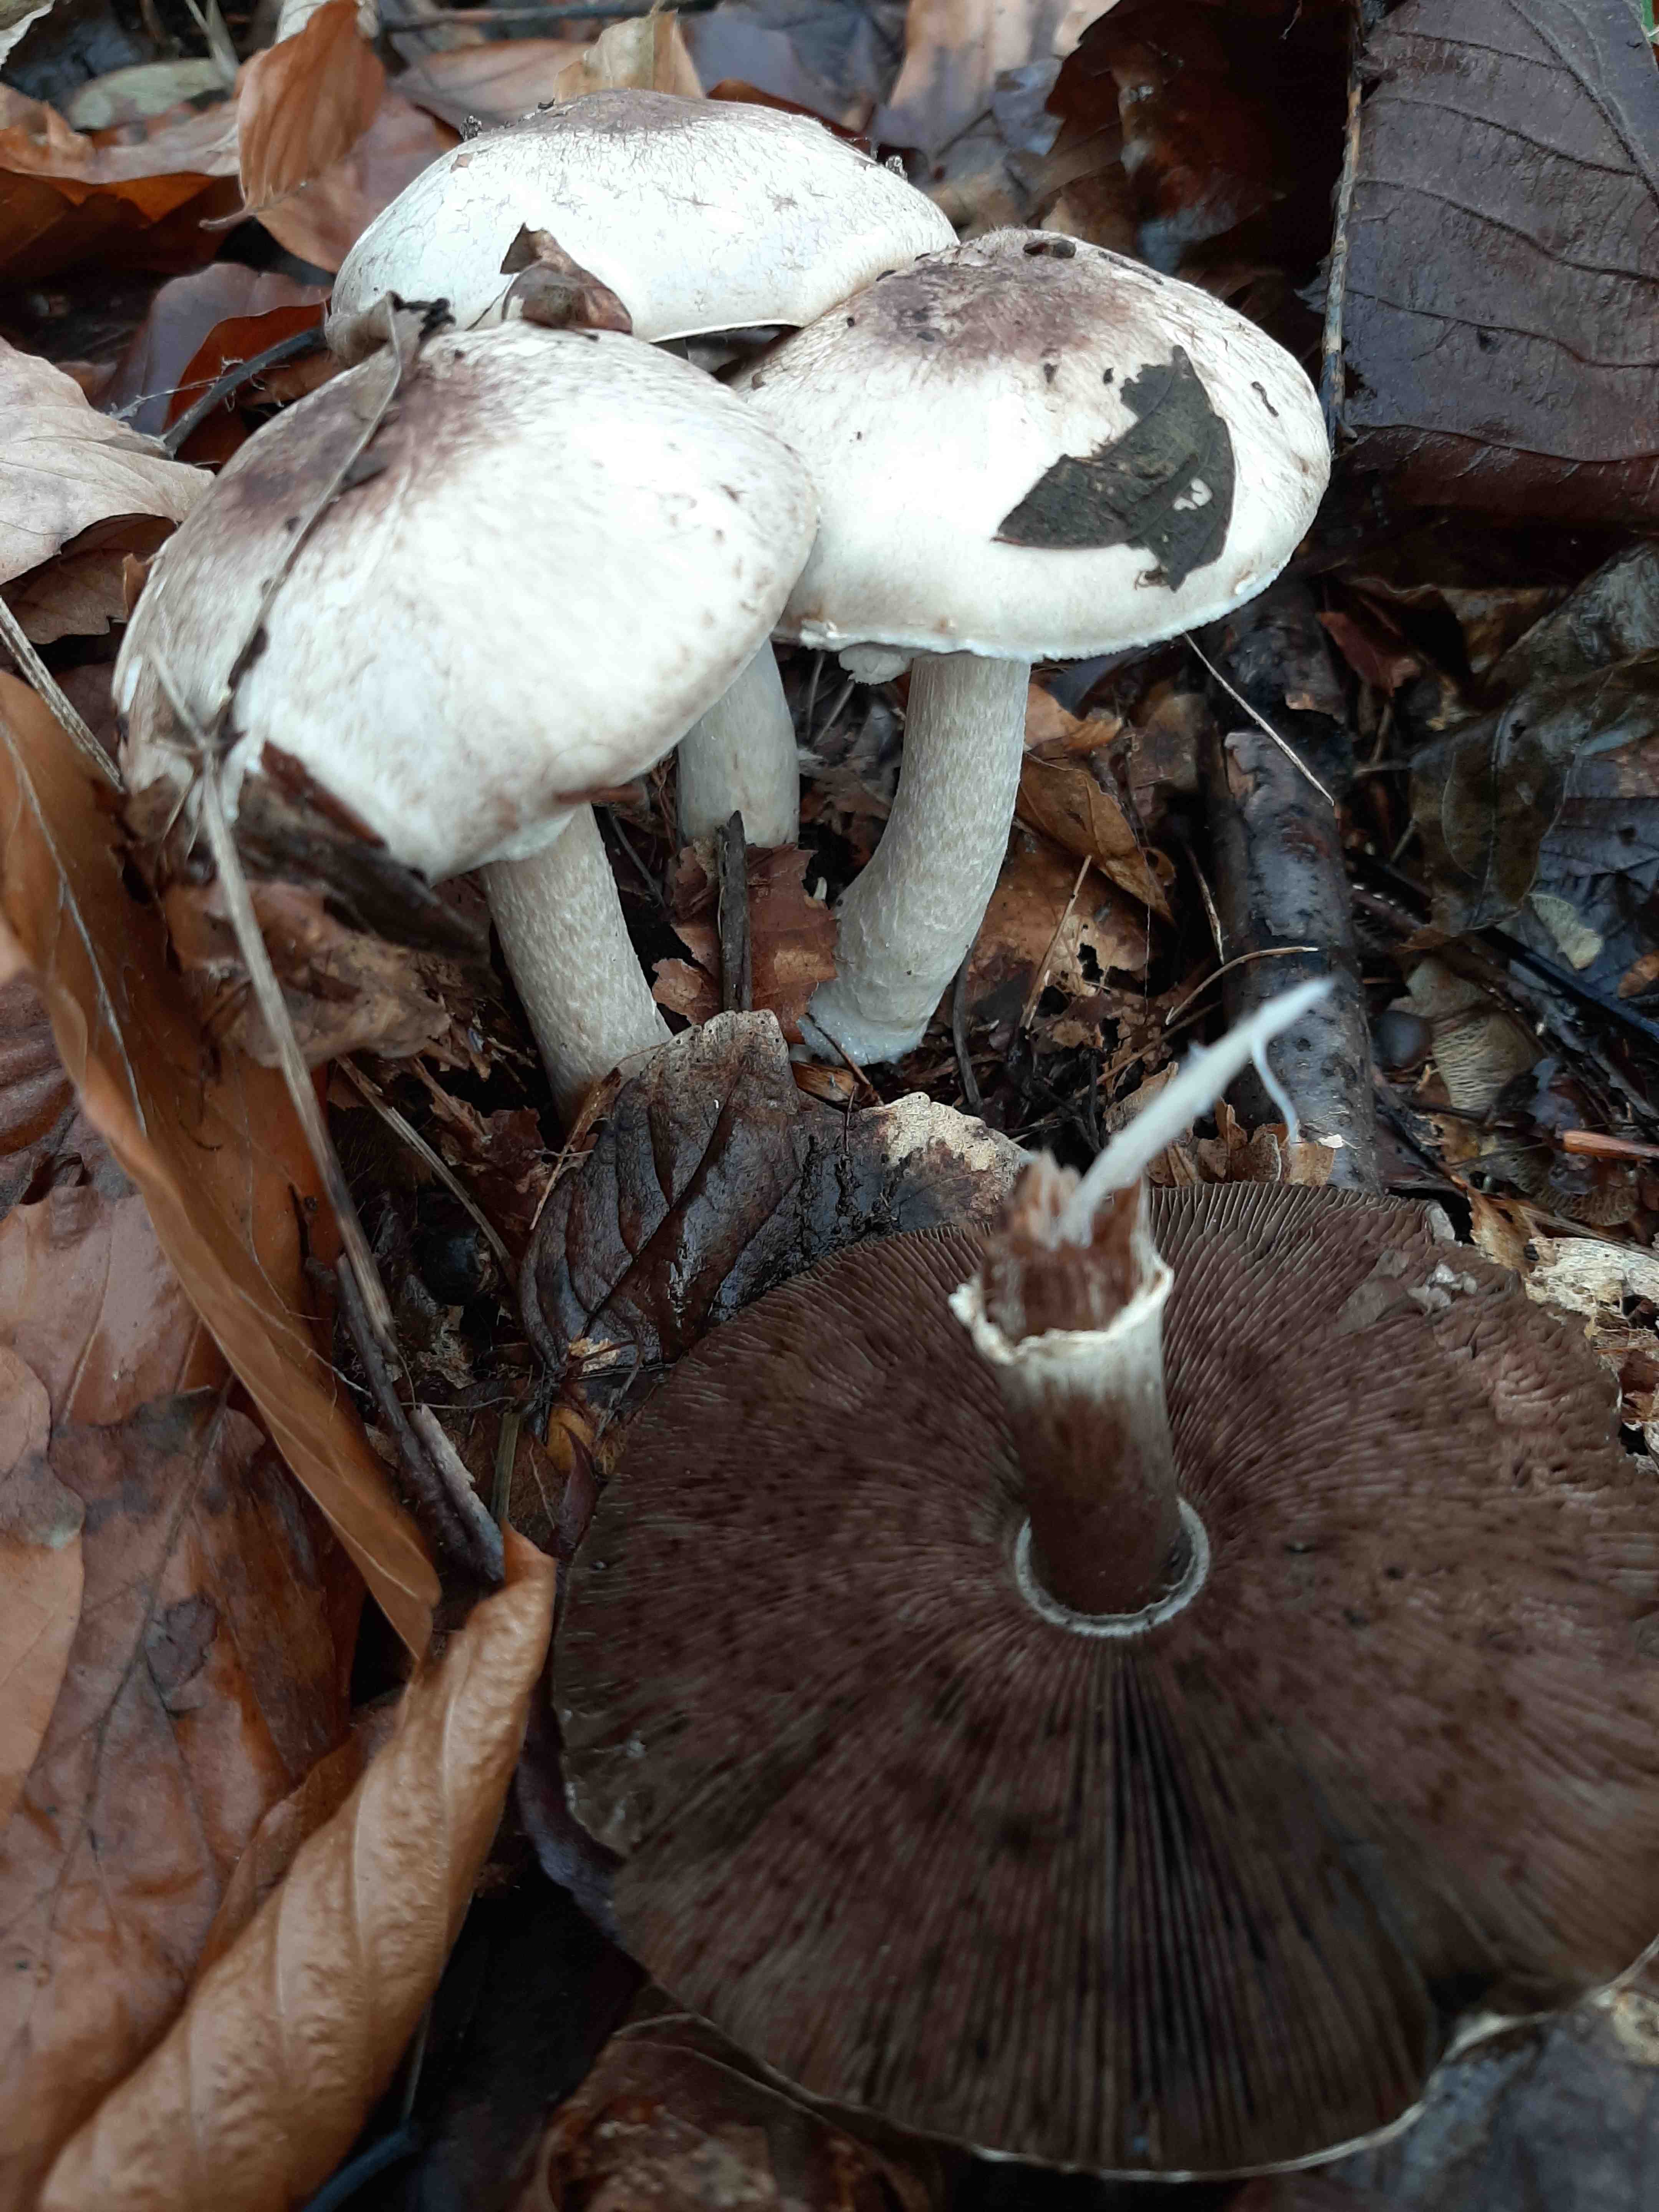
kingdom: Fungi
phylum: Basidiomycota
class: Agaricomycetes
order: Agaricales
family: Agaricaceae
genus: Agaricus
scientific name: Agaricus
